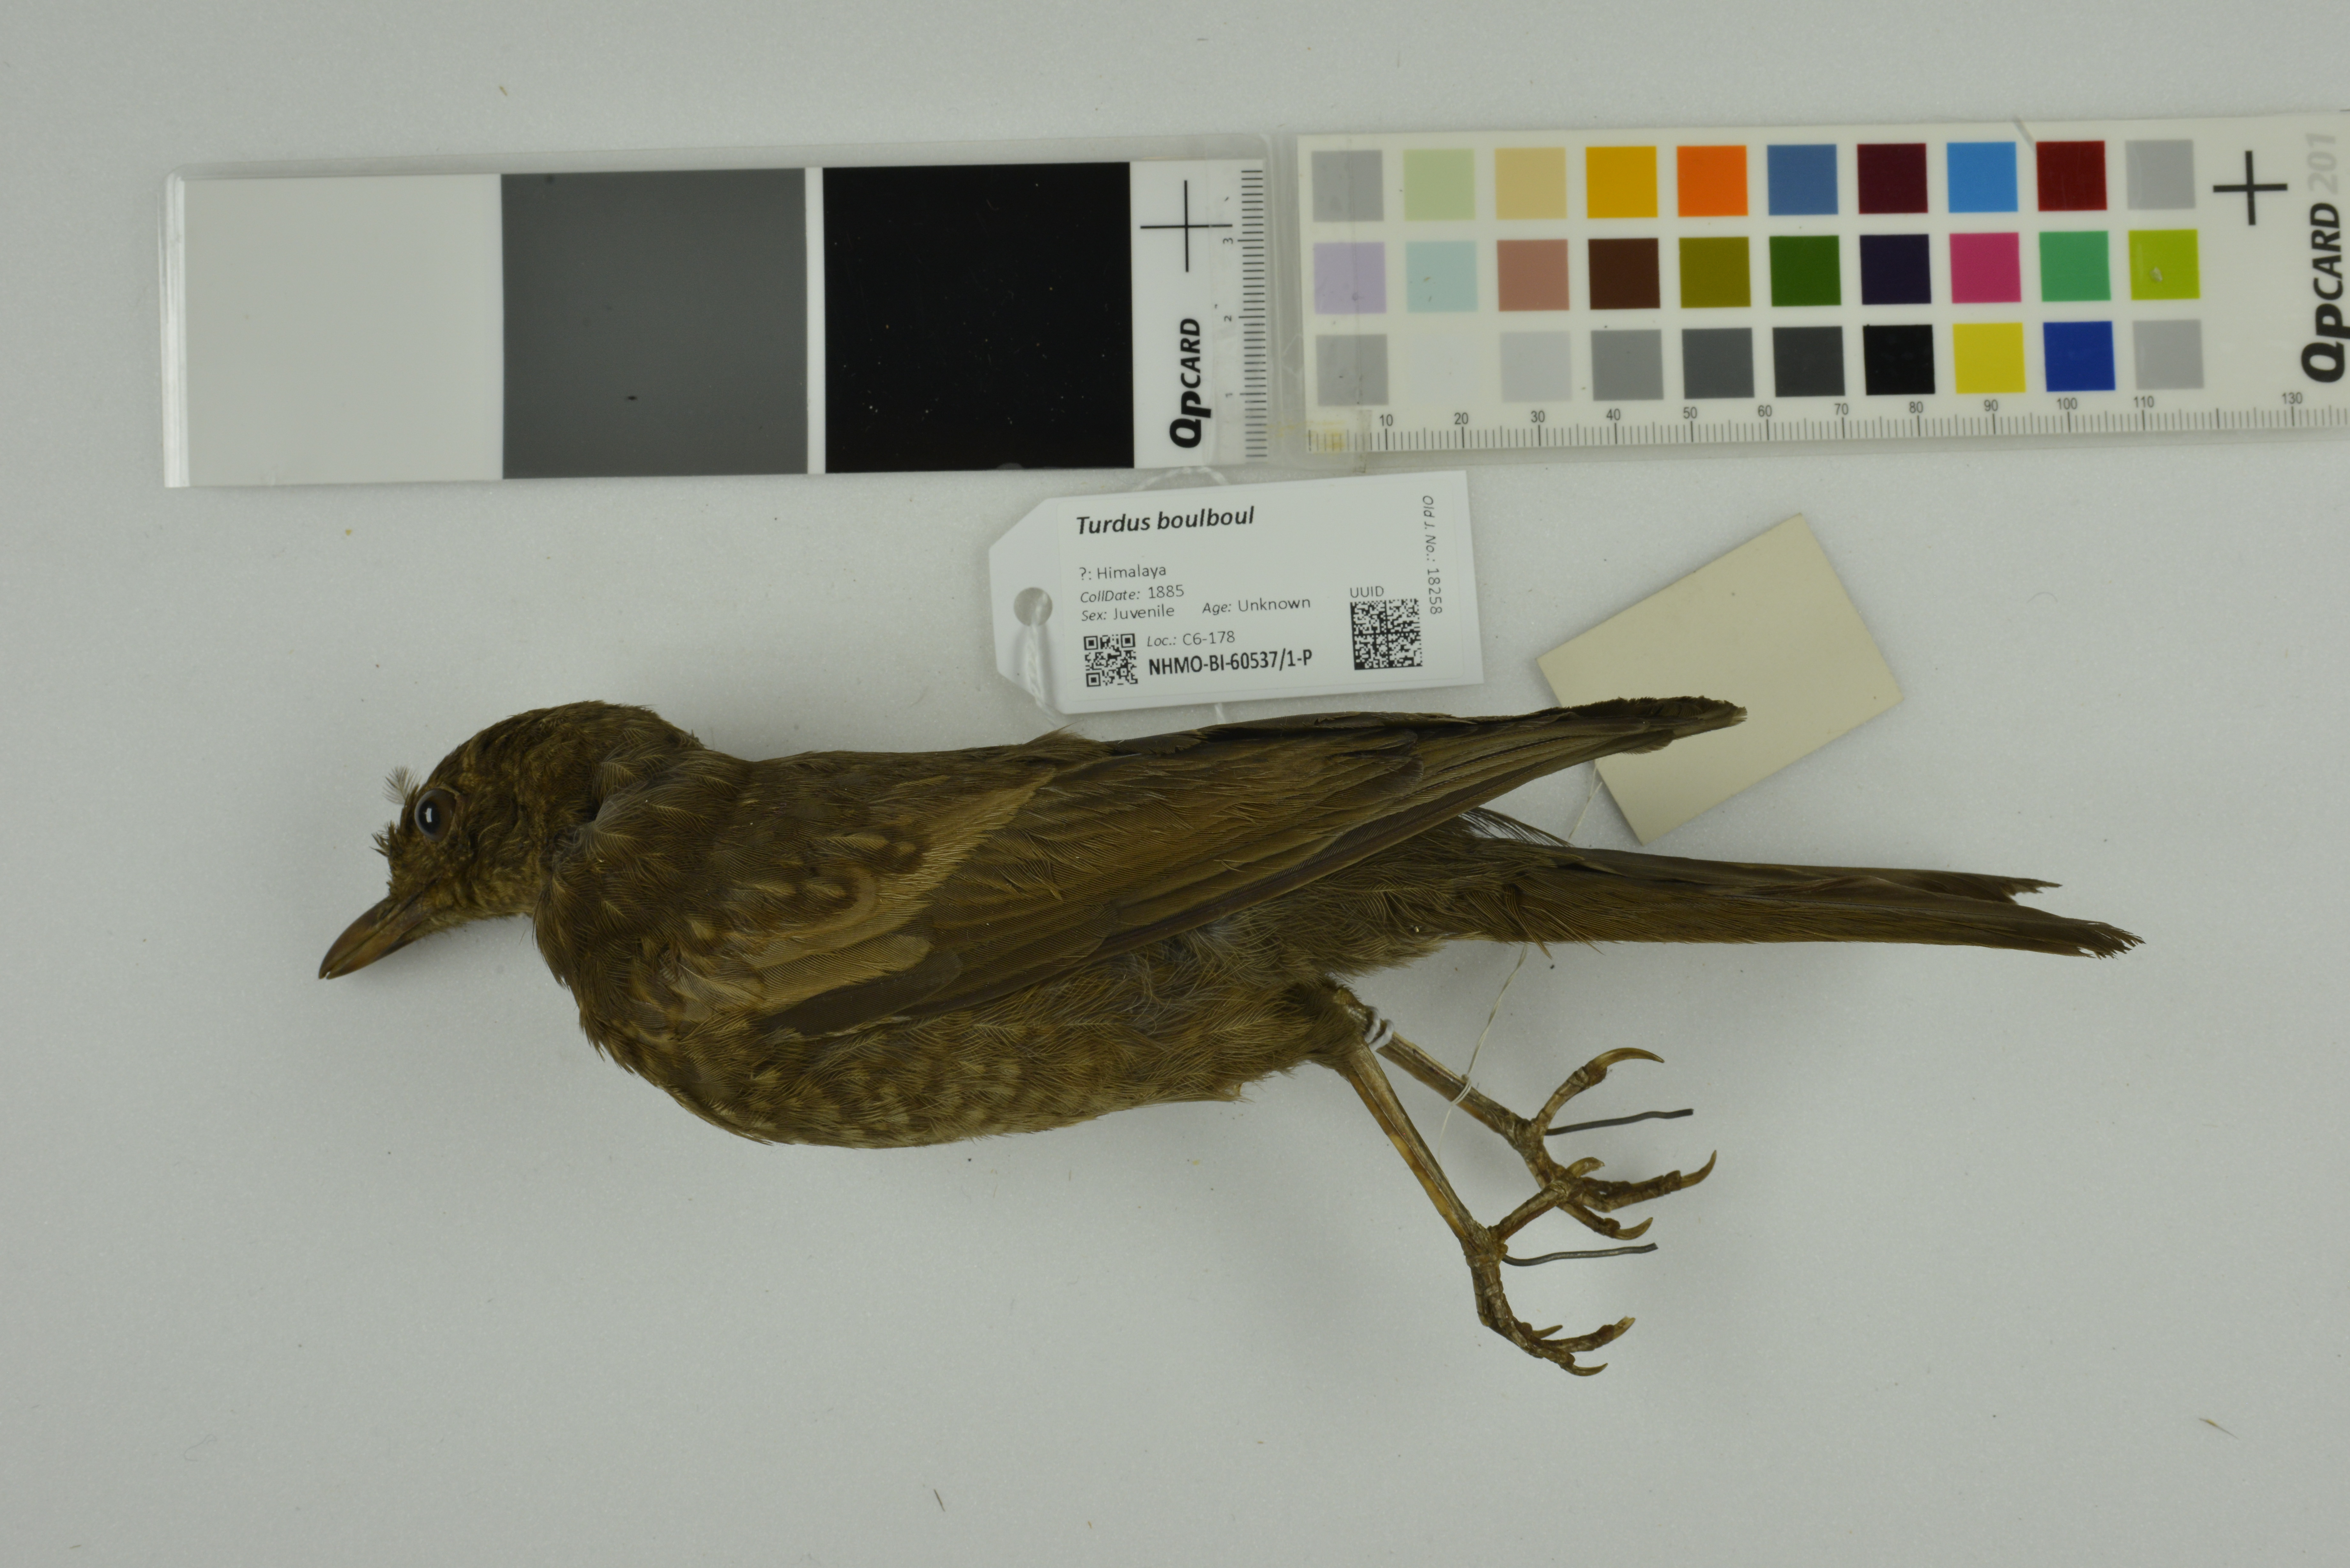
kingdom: Animalia
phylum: Chordata
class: Aves
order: Passeriformes
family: Turdidae
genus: Turdus
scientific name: Turdus boulboul
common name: Grey-winged blackbird
